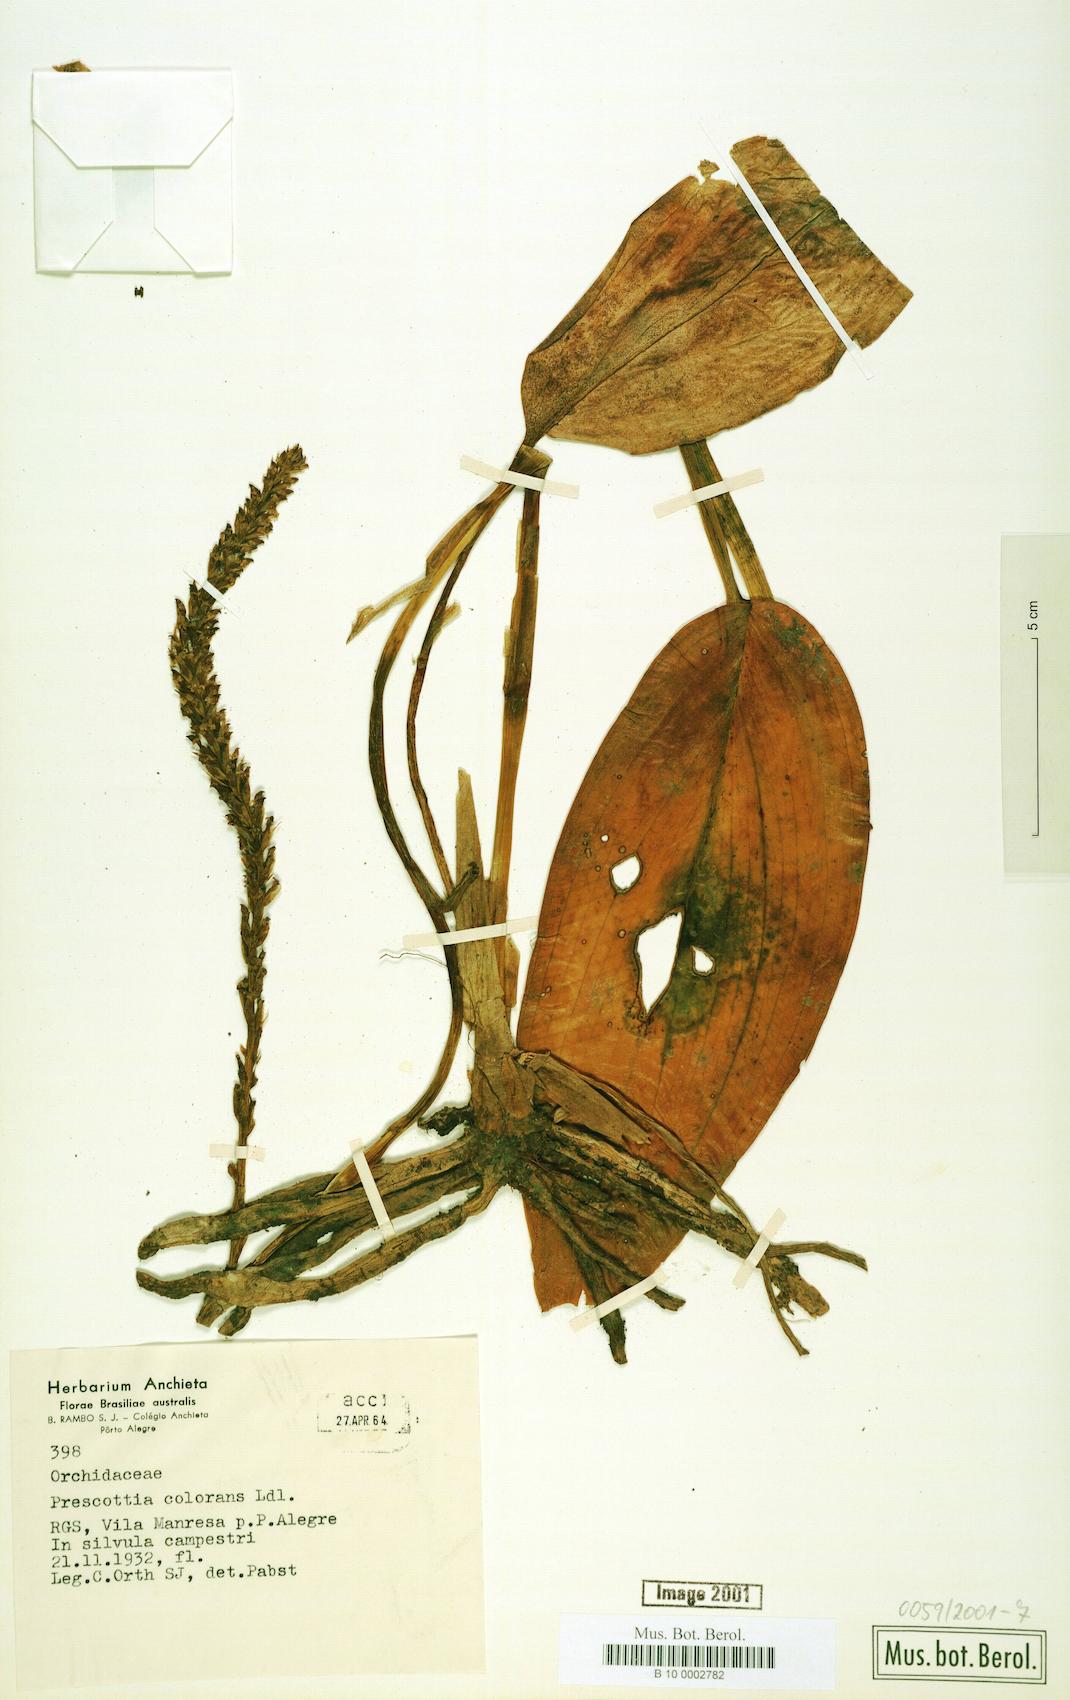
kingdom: Plantae
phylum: Tracheophyta
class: Liliopsida
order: Asparagales
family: Orchidaceae
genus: Prescottia
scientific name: Prescottia stachyodes
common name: Mountain prescott orchid
